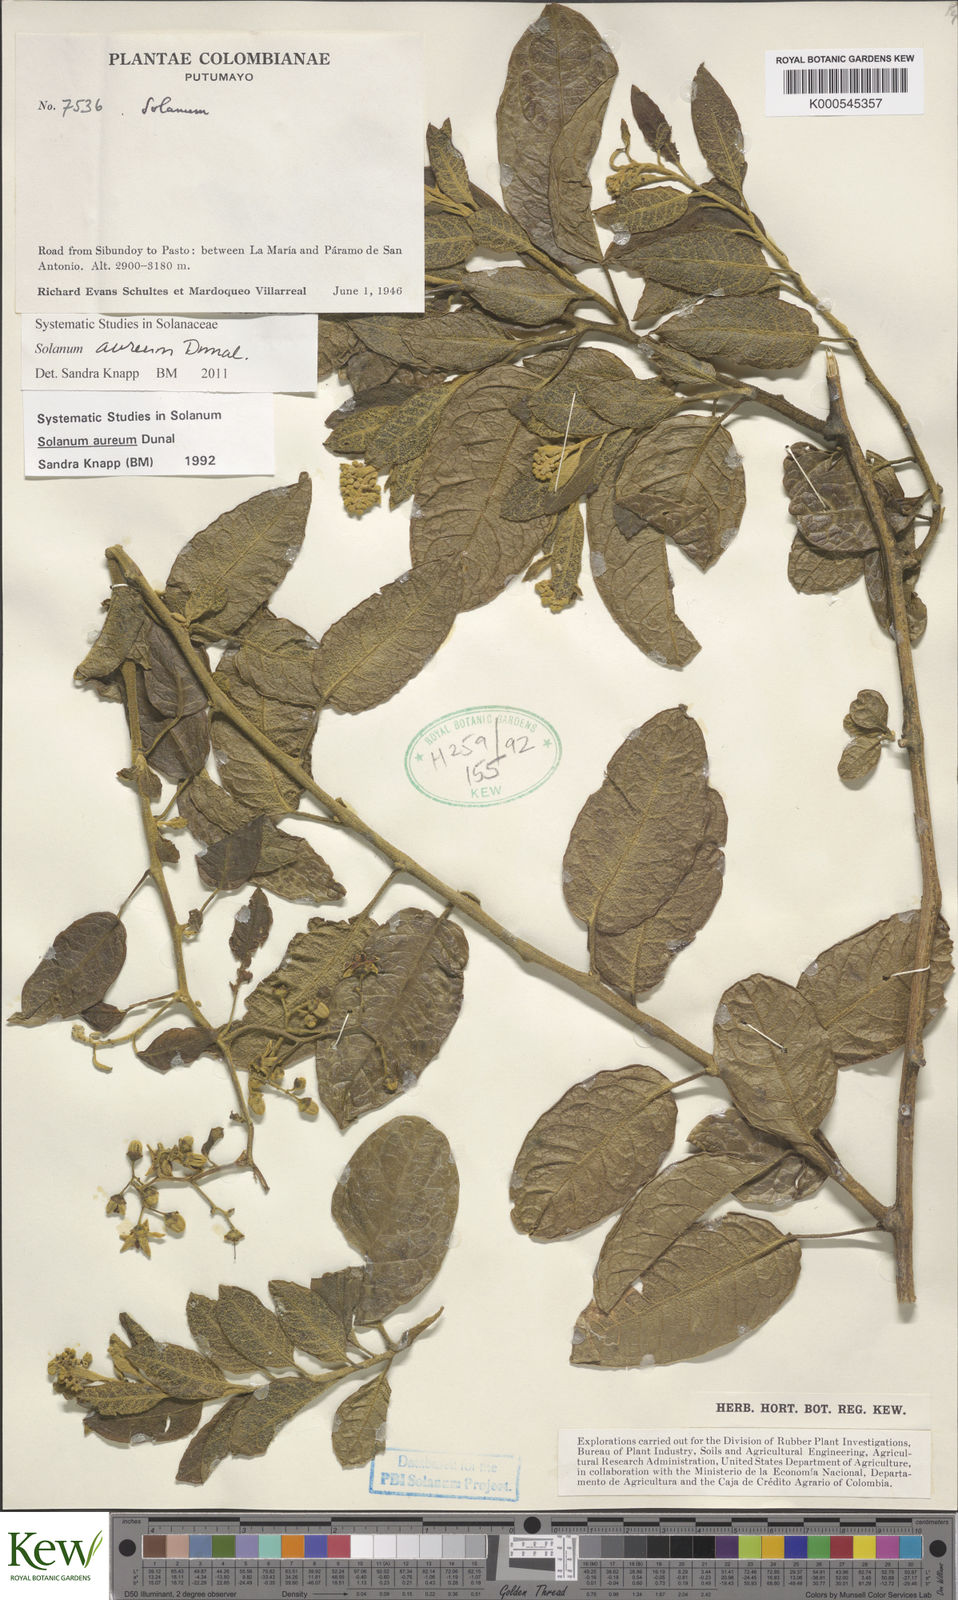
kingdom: Plantae
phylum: Tracheophyta
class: Magnoliopsida
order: Solanales
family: Solanaceae
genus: Solanum
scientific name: Solanum aureum
